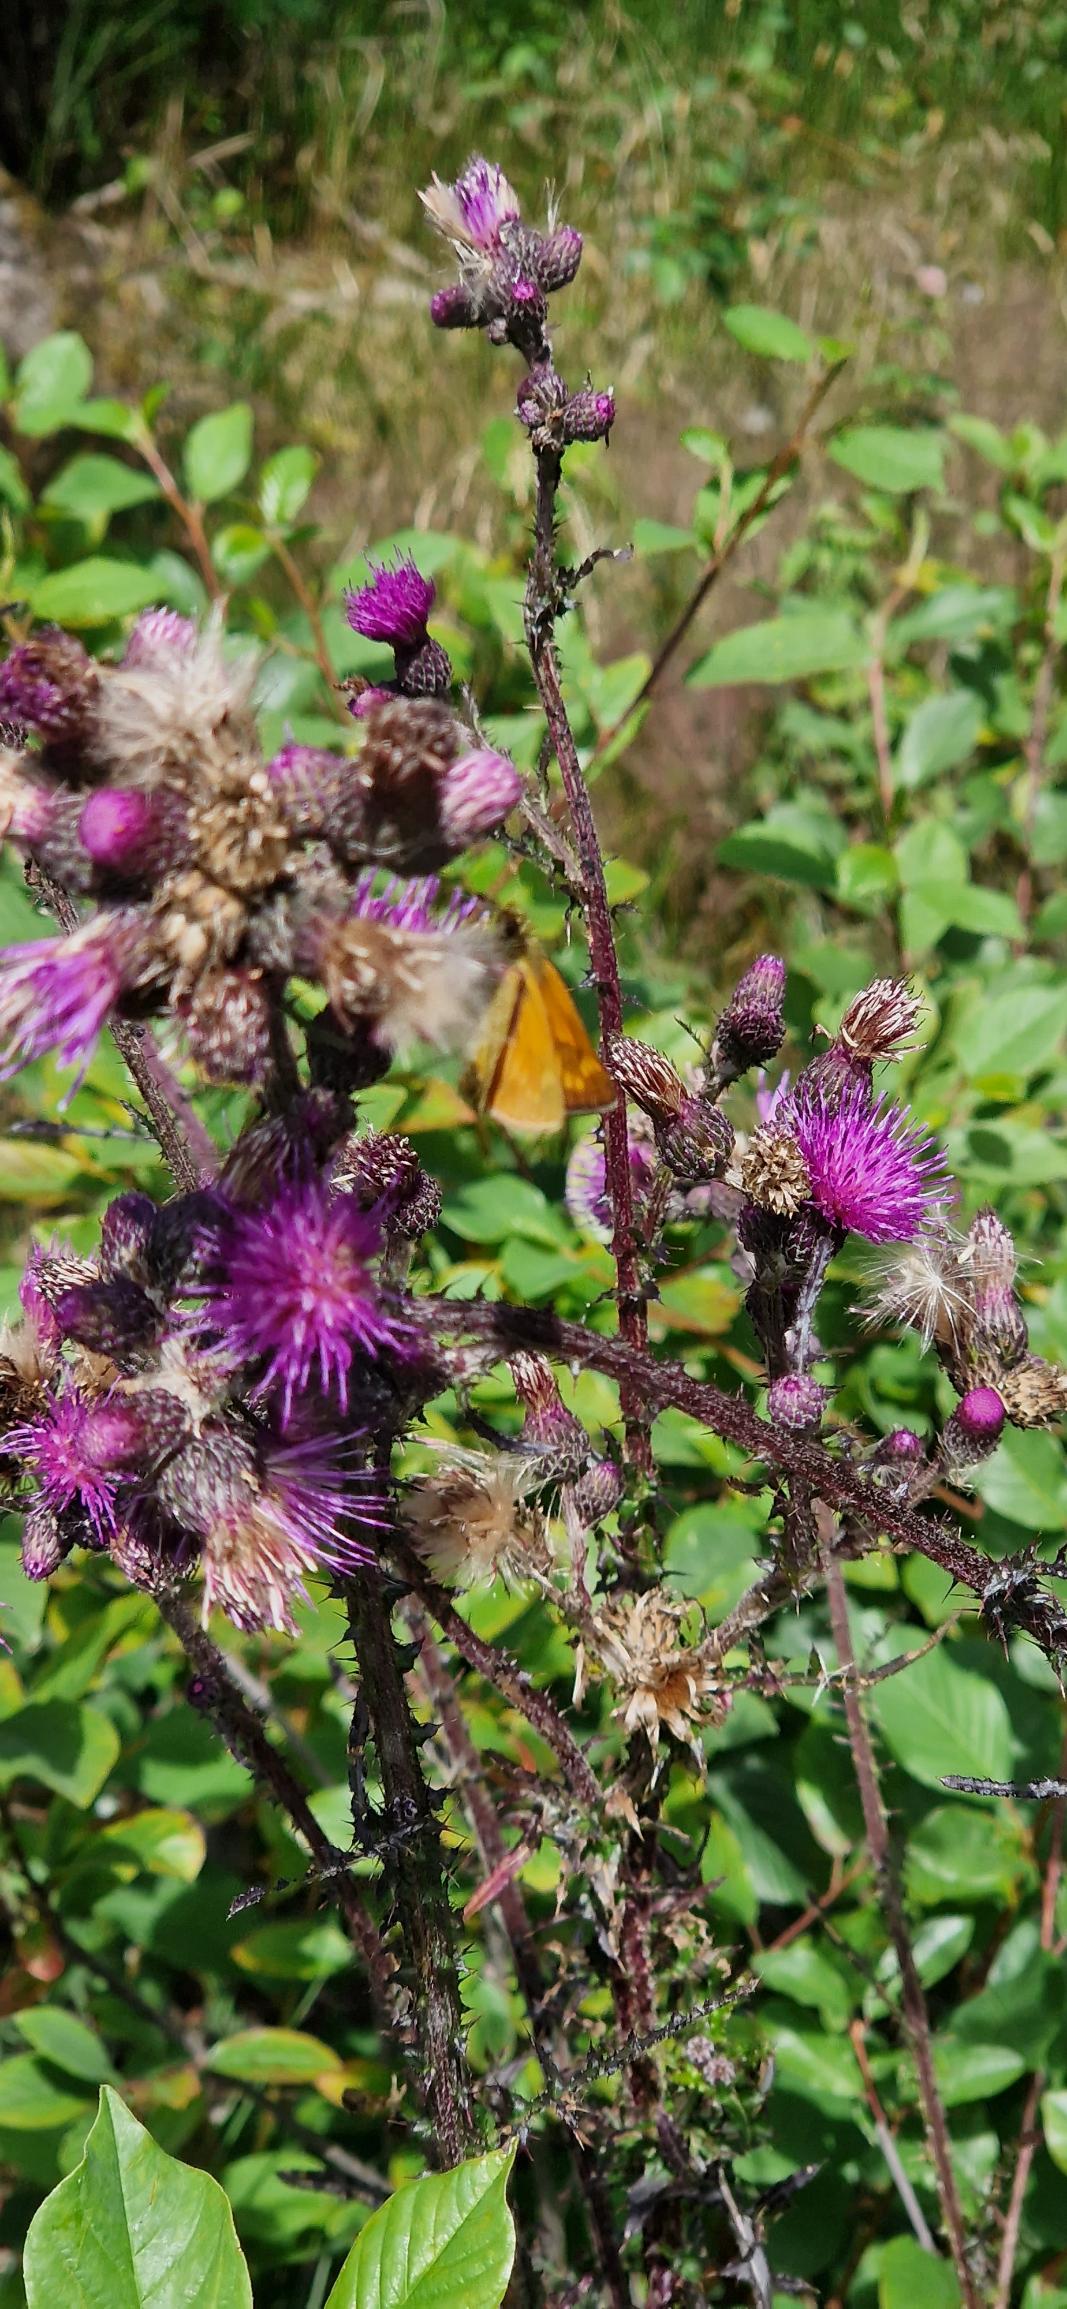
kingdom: Animalia
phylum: Arthropoda
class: Insecta
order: Lepidoptera
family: Hesperiidae
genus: Ochlodes
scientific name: Ochlodes venata
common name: Stor bredpande
